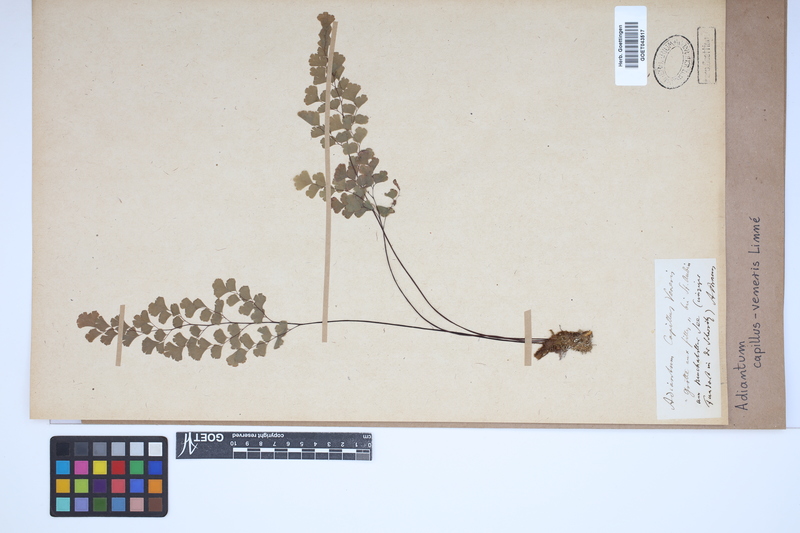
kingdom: Plantae
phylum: Tracheophyta
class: Polypodiopsida
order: Polypodiales
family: Pteridaceae
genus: Adiantum
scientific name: Adiantum capillus-veneris
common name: Maidenhair fern
